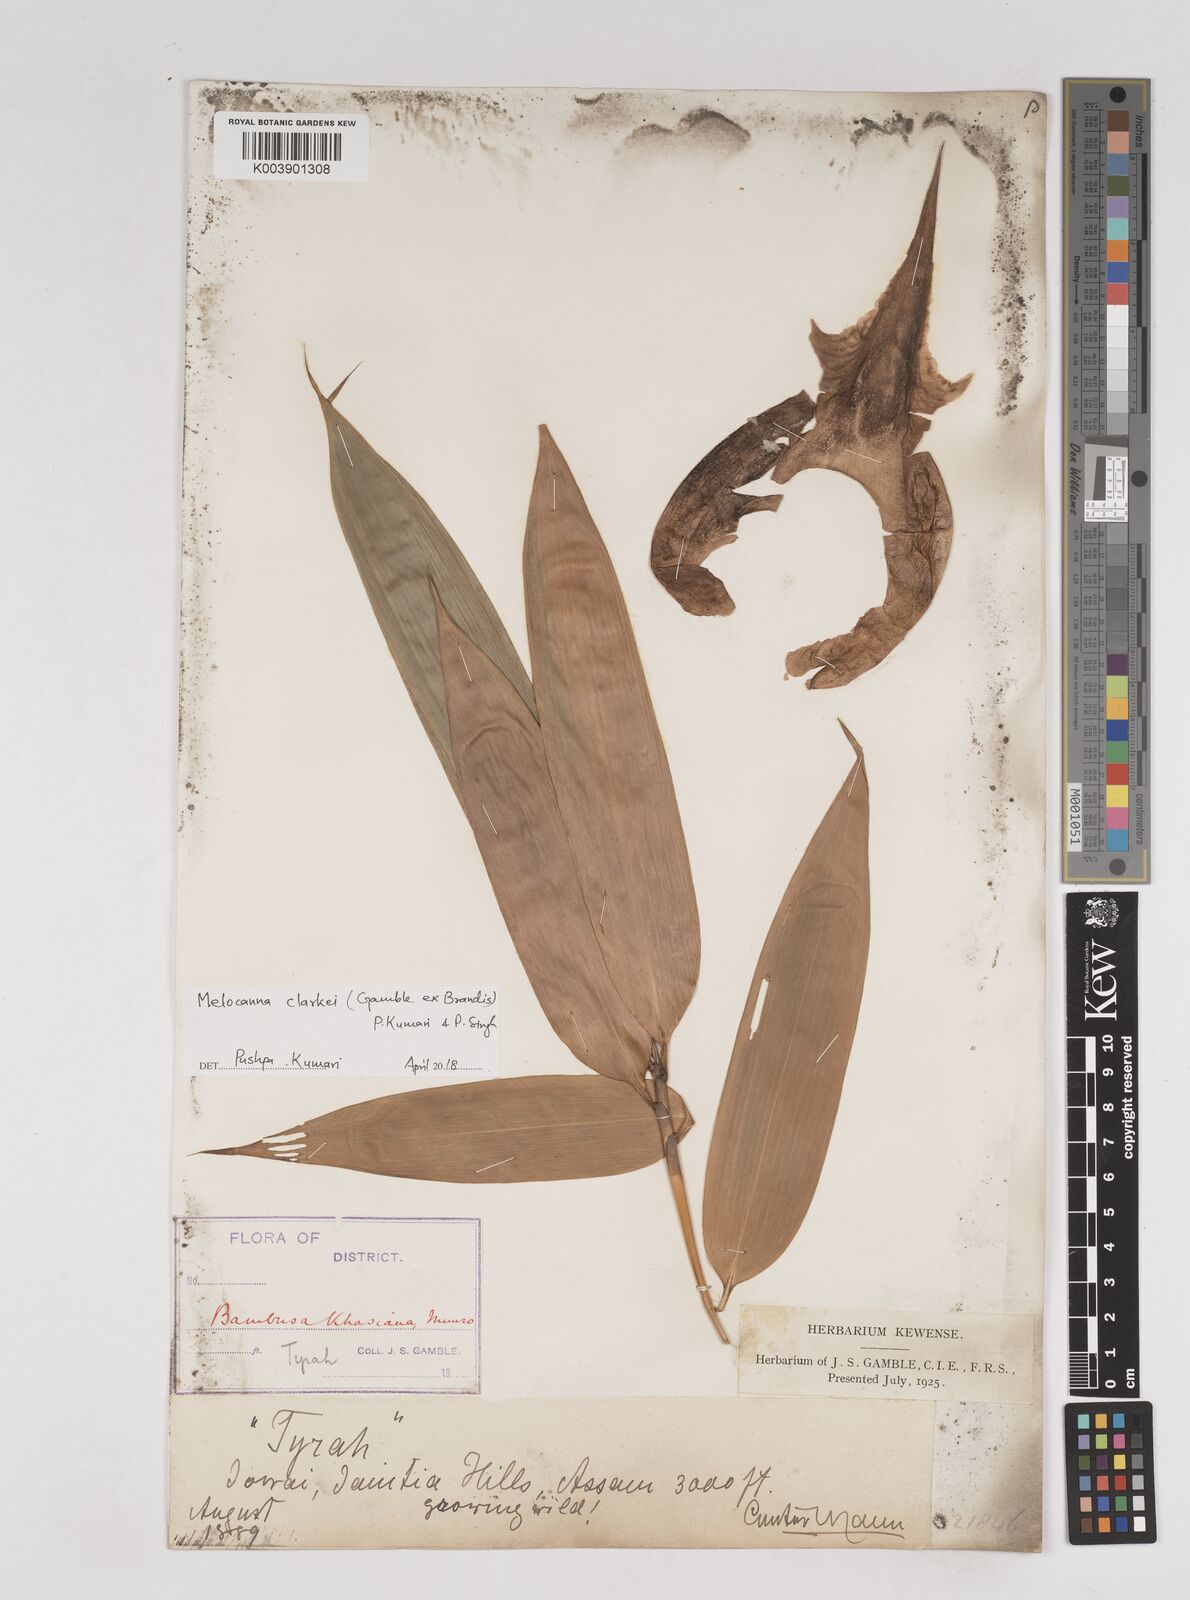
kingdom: Plantae
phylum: Tracheophyta
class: Liliopsida
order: Poales
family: Poaceae
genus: Melocanna
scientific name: Melocanna clarkei
